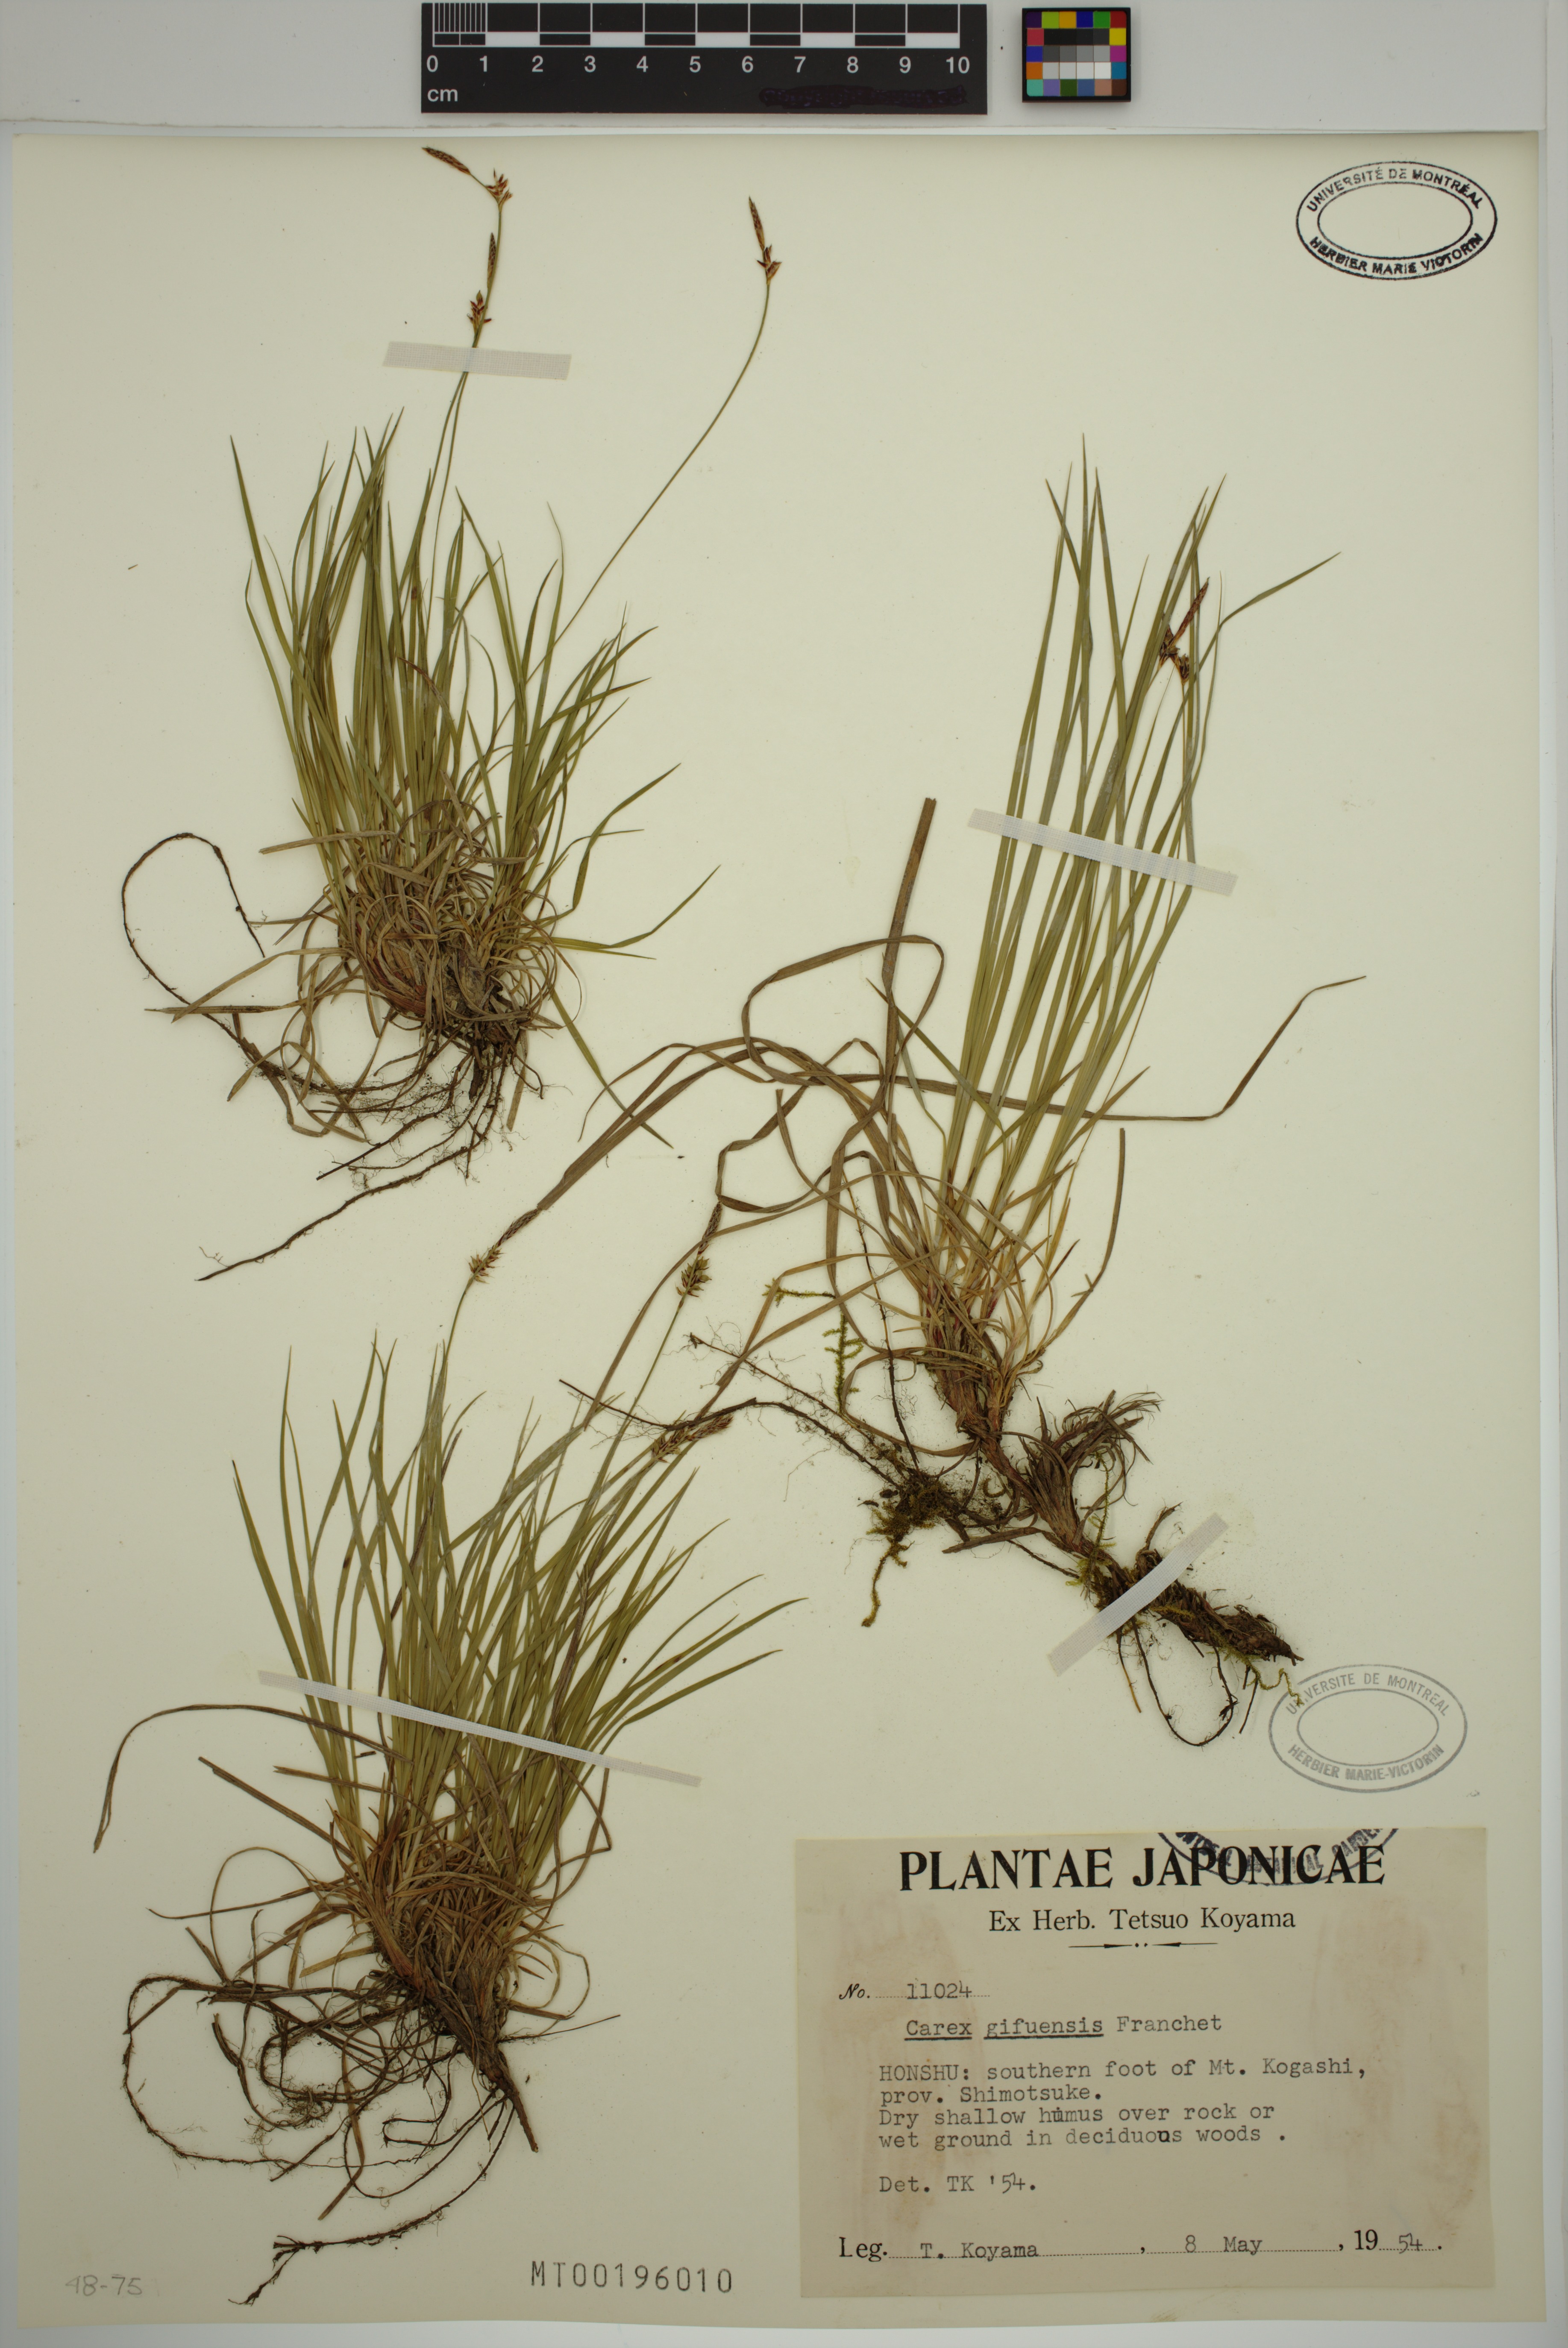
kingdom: Plantae
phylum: Tracheophyta
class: Liliopsida
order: Poales
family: Cyperaceae
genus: Carex
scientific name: Carex gifuensis
